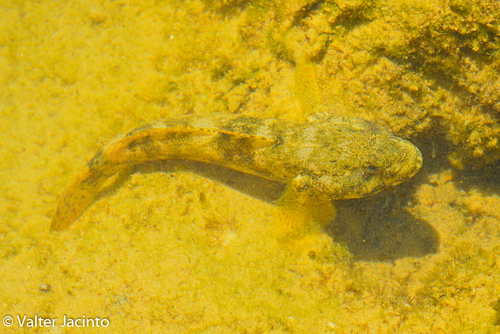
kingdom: Animalia
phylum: Chordata
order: Perciformes
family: Gobiidae
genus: Gobius
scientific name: Gobius cobitis
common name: Giant goby
